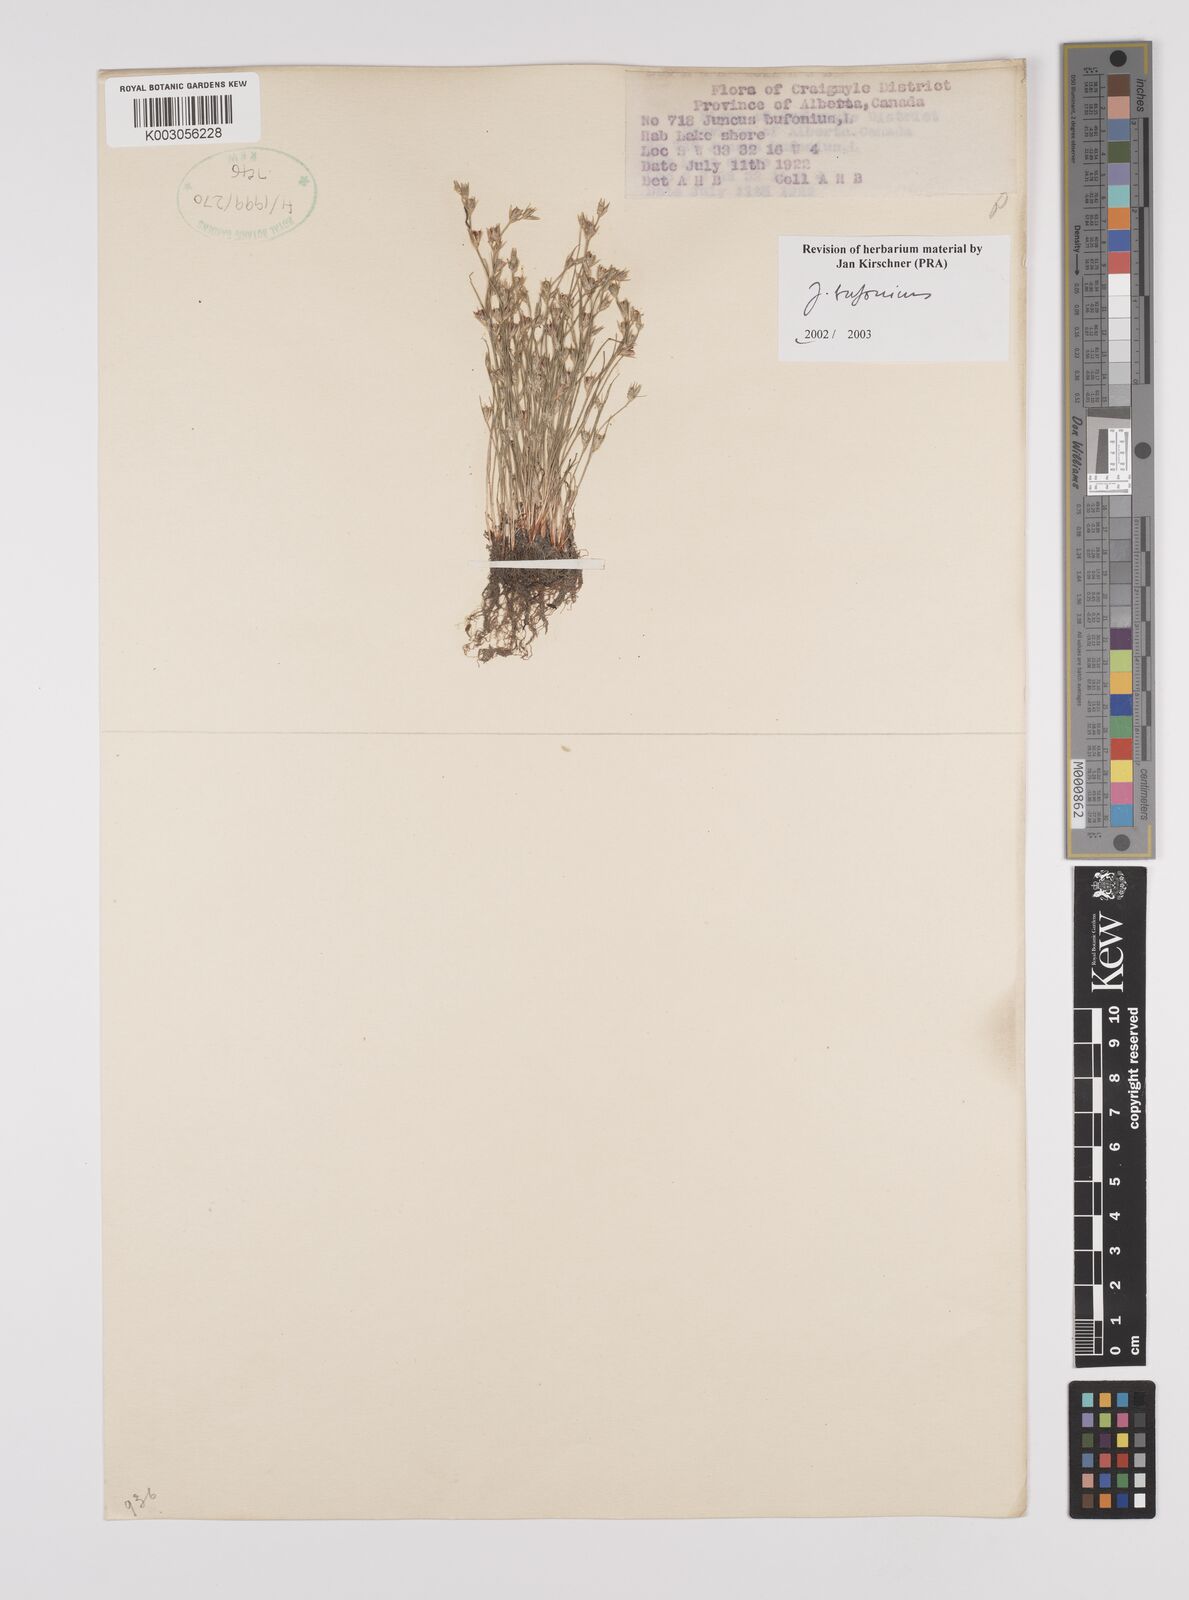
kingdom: Plantae
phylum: Tracheophyta
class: Liliopsida
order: Poales
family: Juncaceae
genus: Juncus
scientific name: Juncus bufonius
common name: Toad rush
